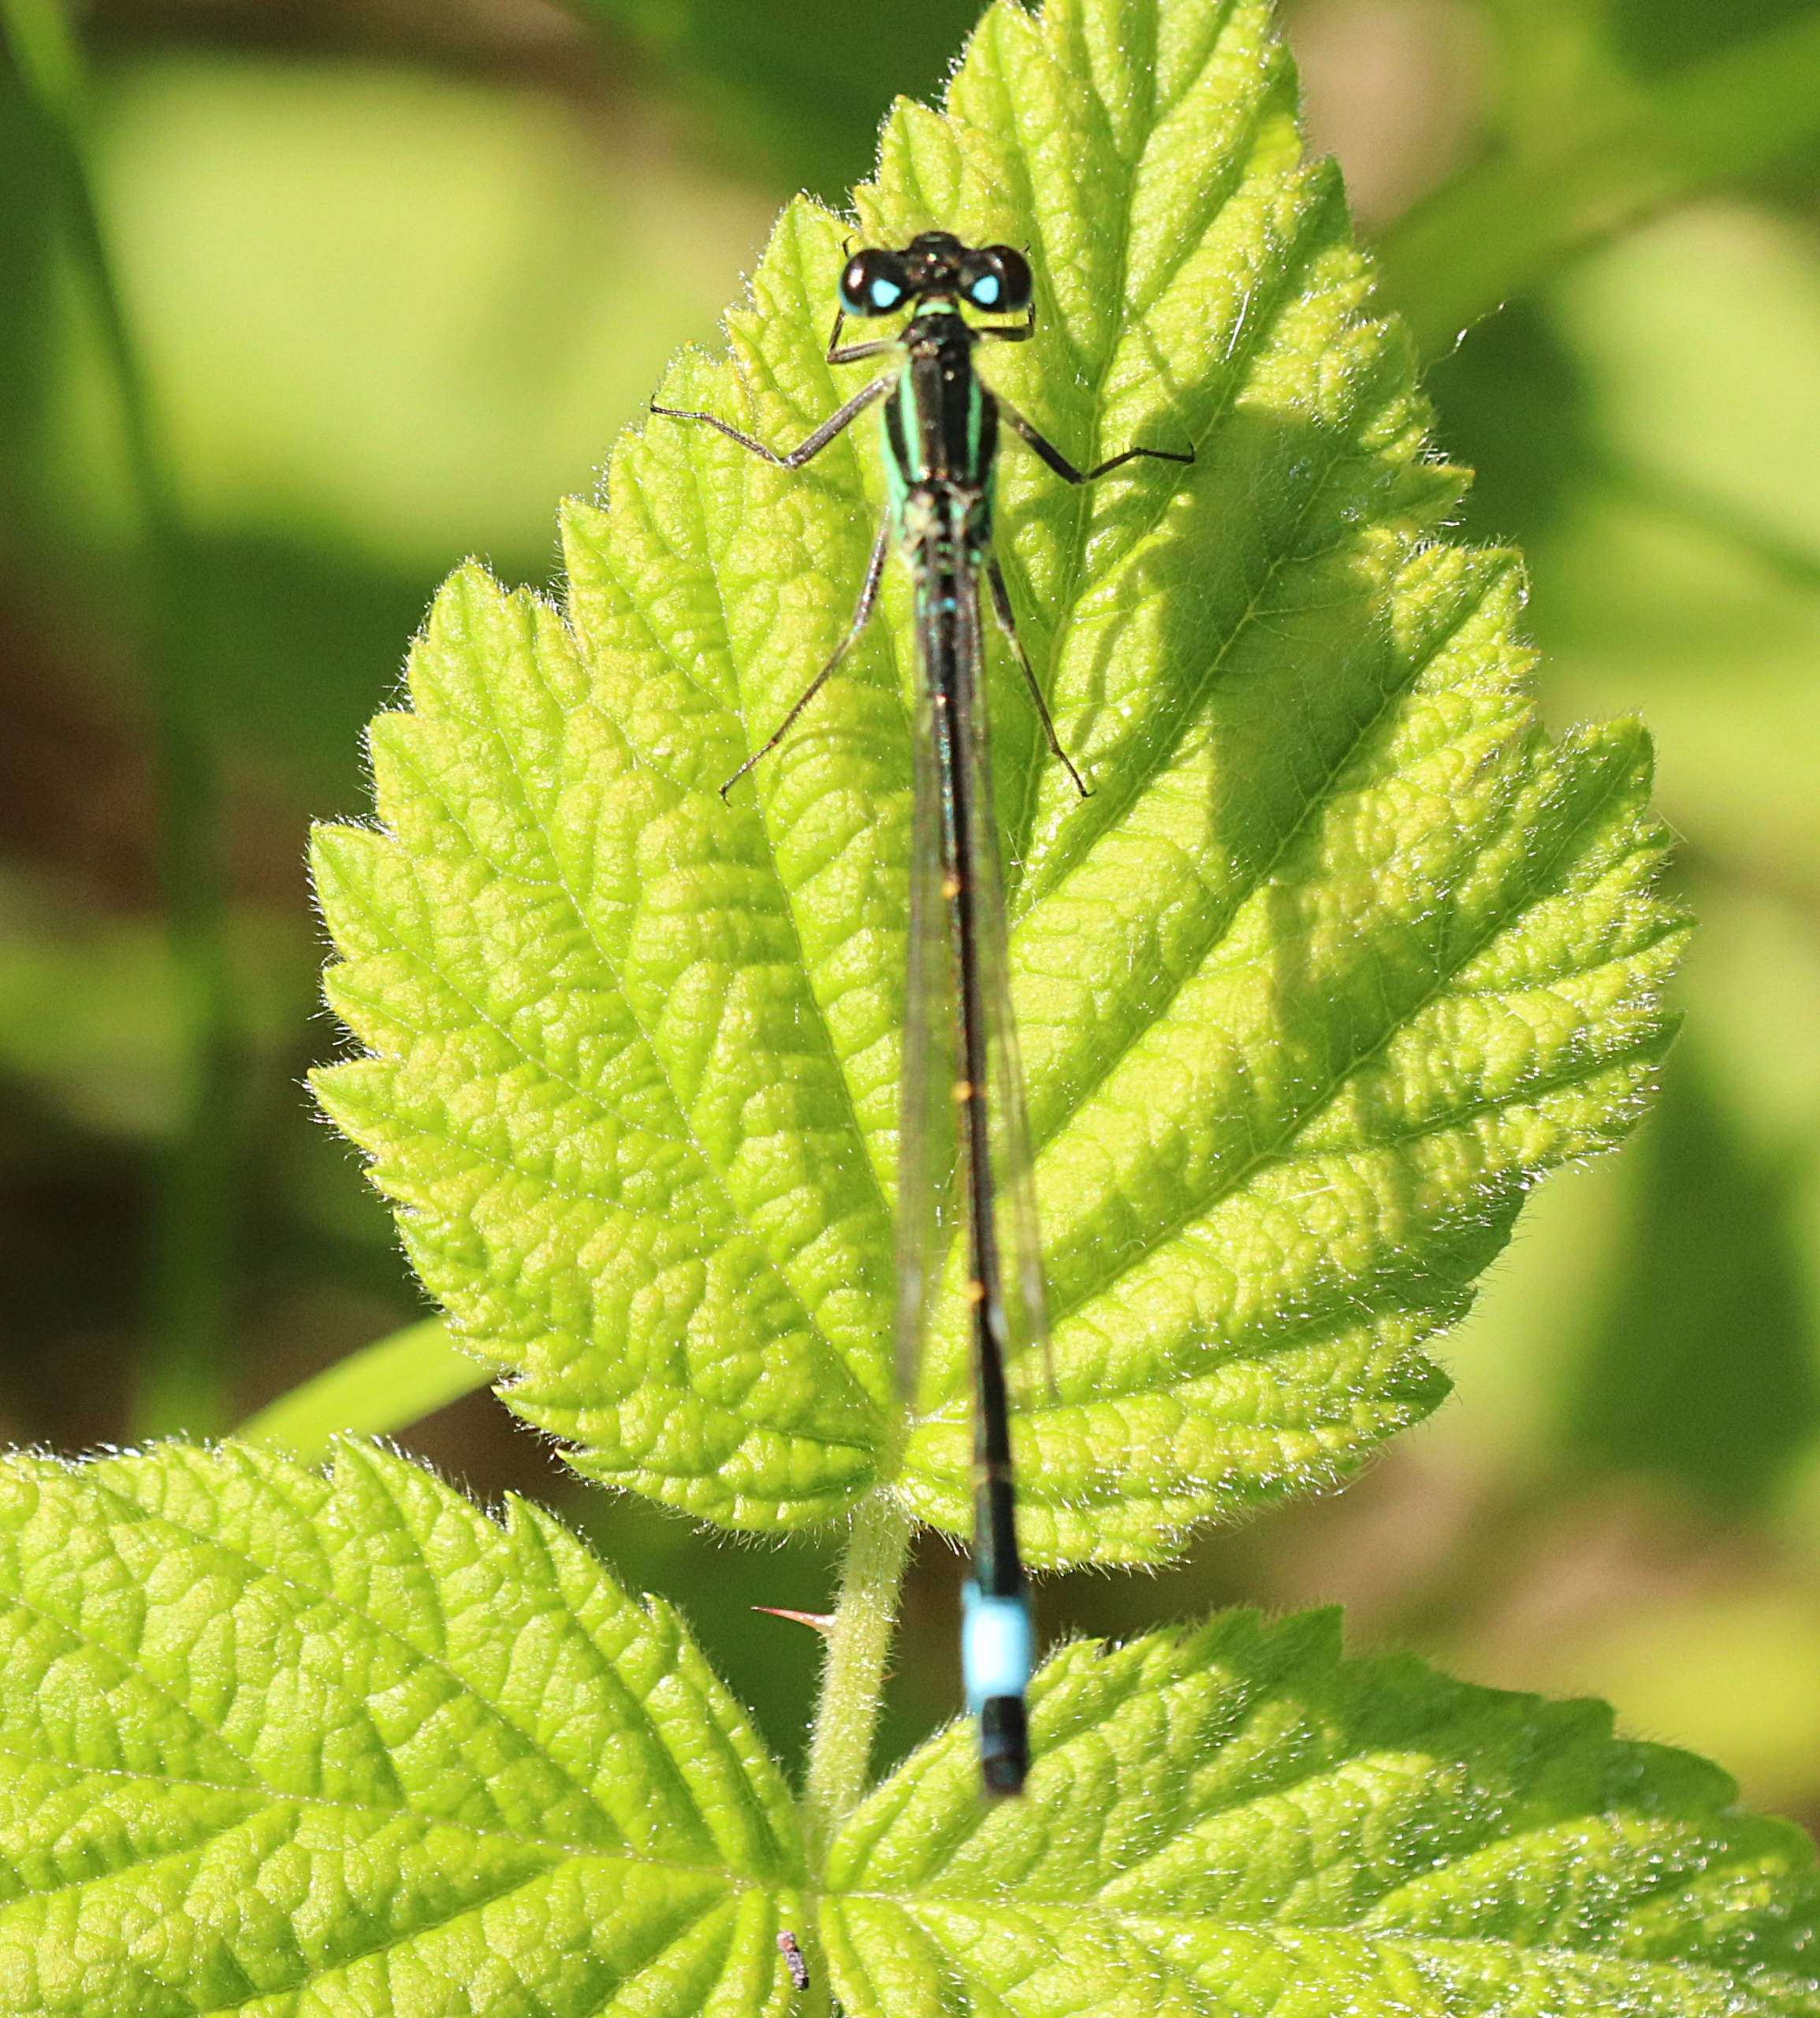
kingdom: Animalia
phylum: Arthropoda
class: Insecta
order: Odonata
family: Coenagrionidae
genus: Ischnura
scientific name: Ischnura elegans
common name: Stor farvevandnymfe
